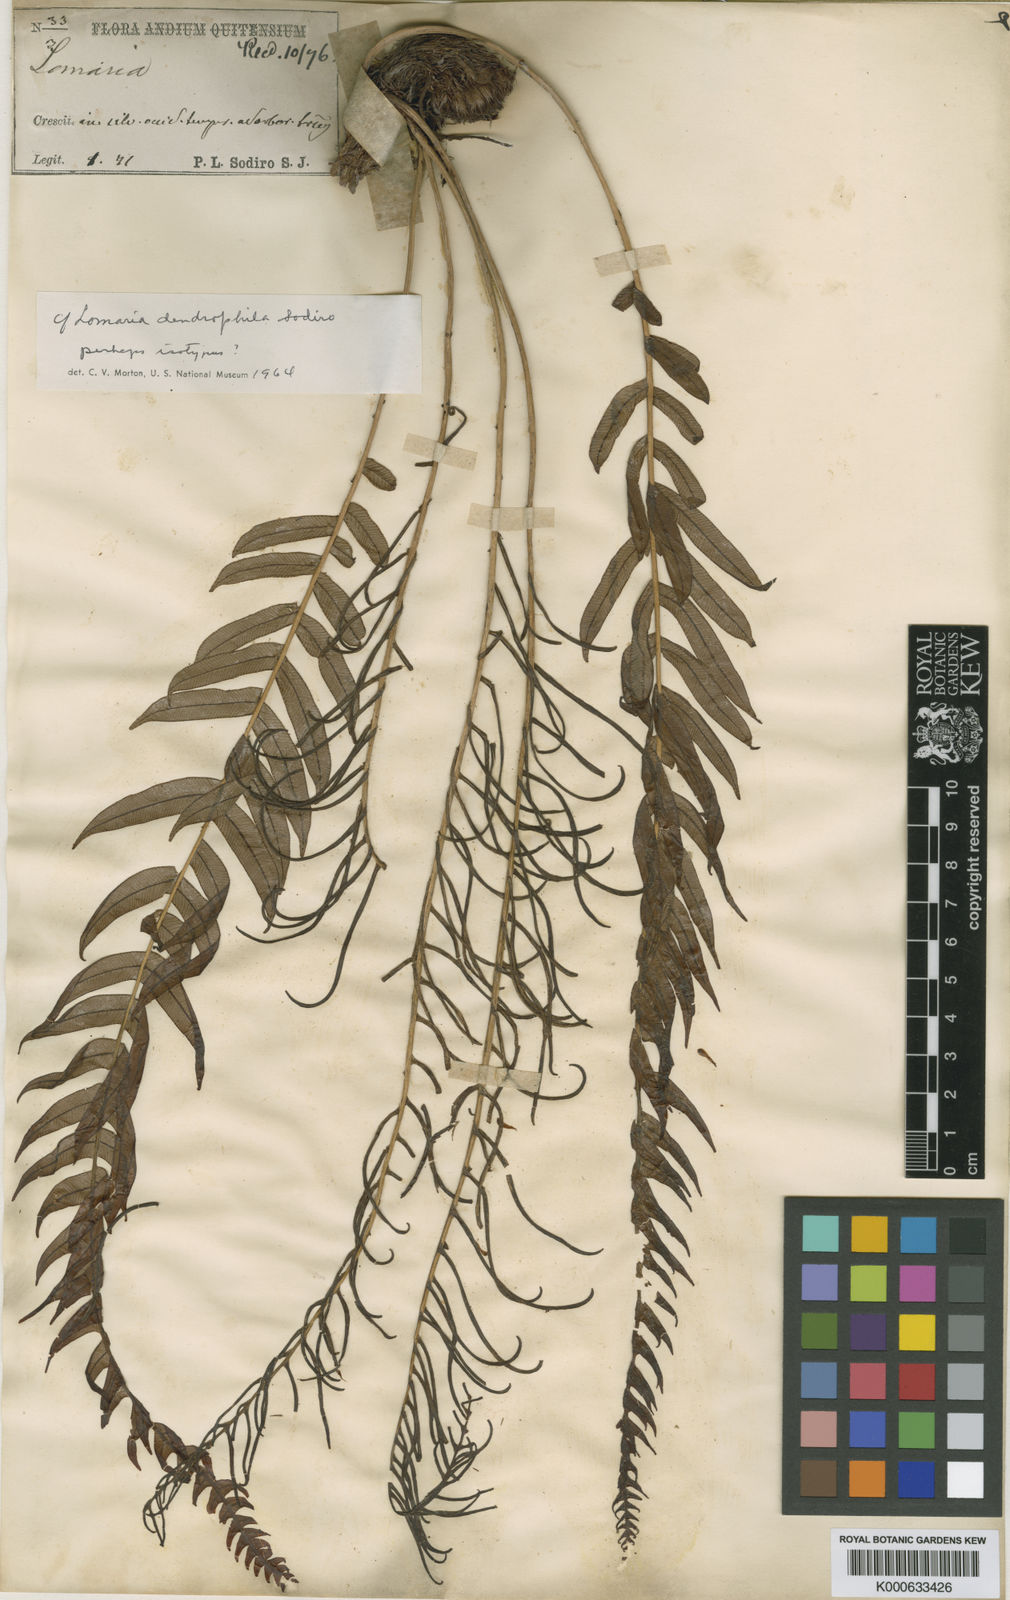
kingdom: Plantae
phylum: Tracheophyta
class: Polypodiopsida
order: Polypodiales
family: Blechnaceae
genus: Blechnum
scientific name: Blechnum occidentale
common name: Hammock fern
